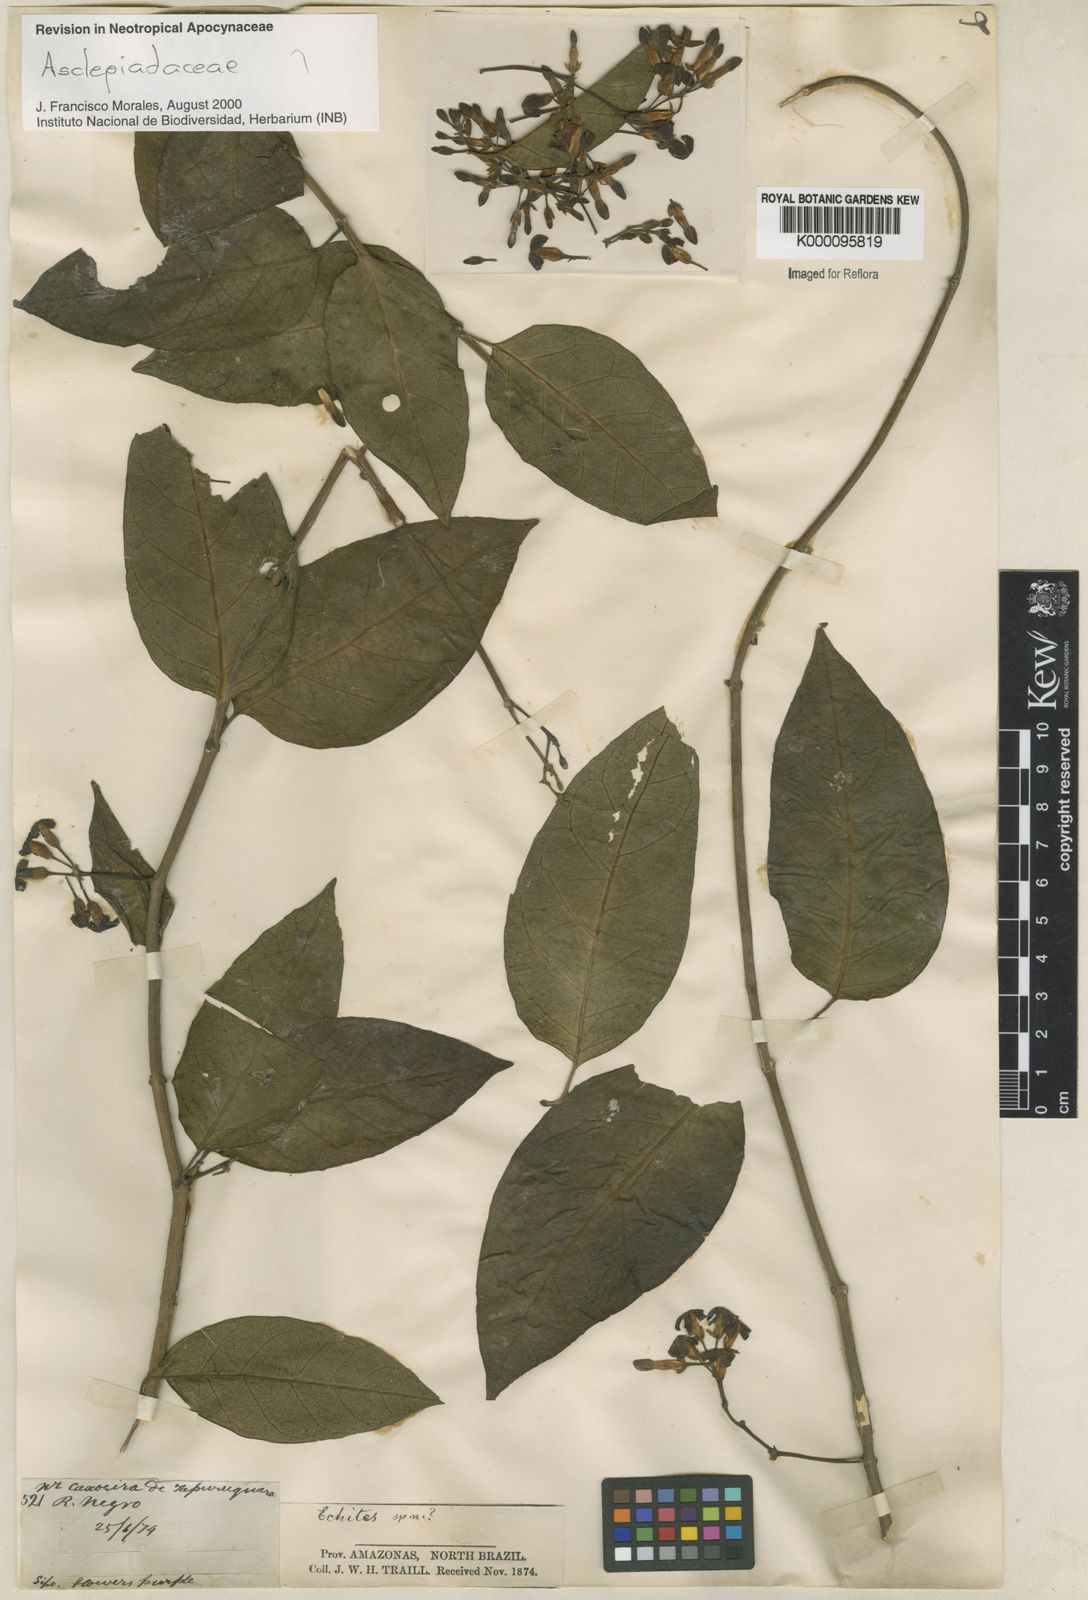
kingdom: Plantae
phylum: Tracheophyta
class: Magnoliopsida
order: Gentianales
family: Apocynaceae
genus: Ruehssia
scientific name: Ruehssia rubrofusca
